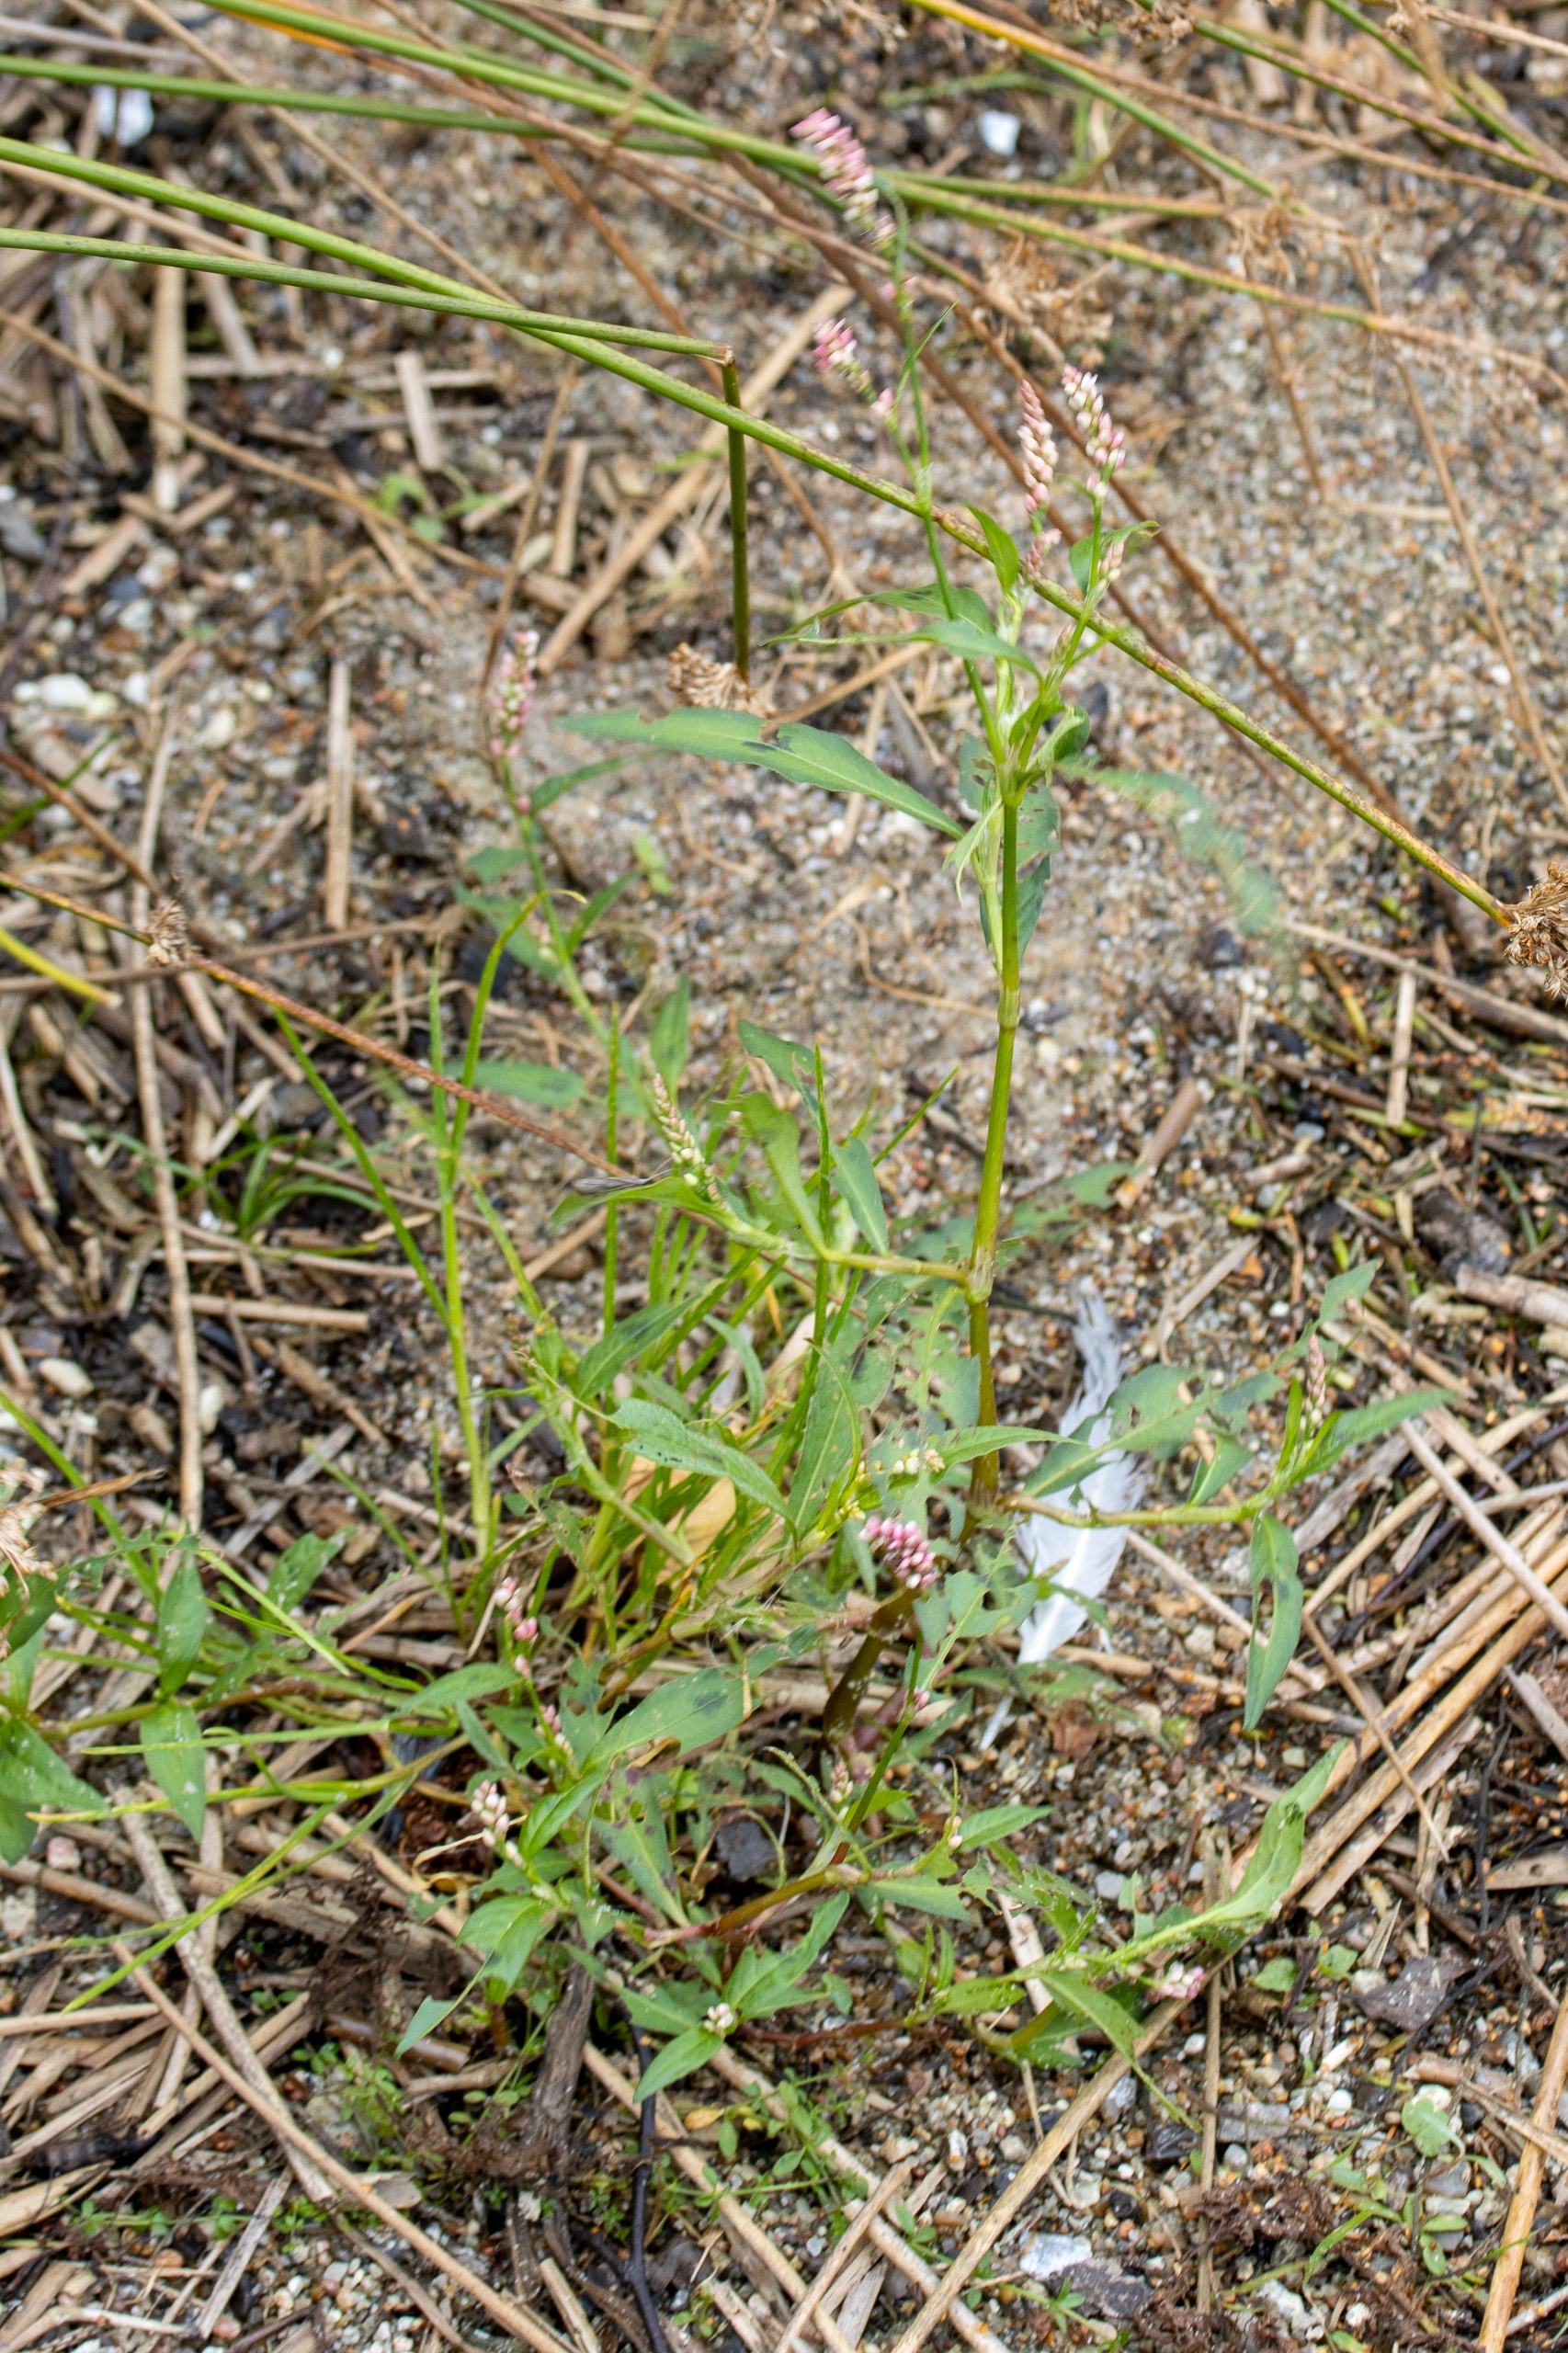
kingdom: Plantae
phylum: Tracheophyta
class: Magnoliopsida
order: Caryophyllales
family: Polygonaceae
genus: Persicaria
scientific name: Persicaria maculosa
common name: Fersken-pileurt
